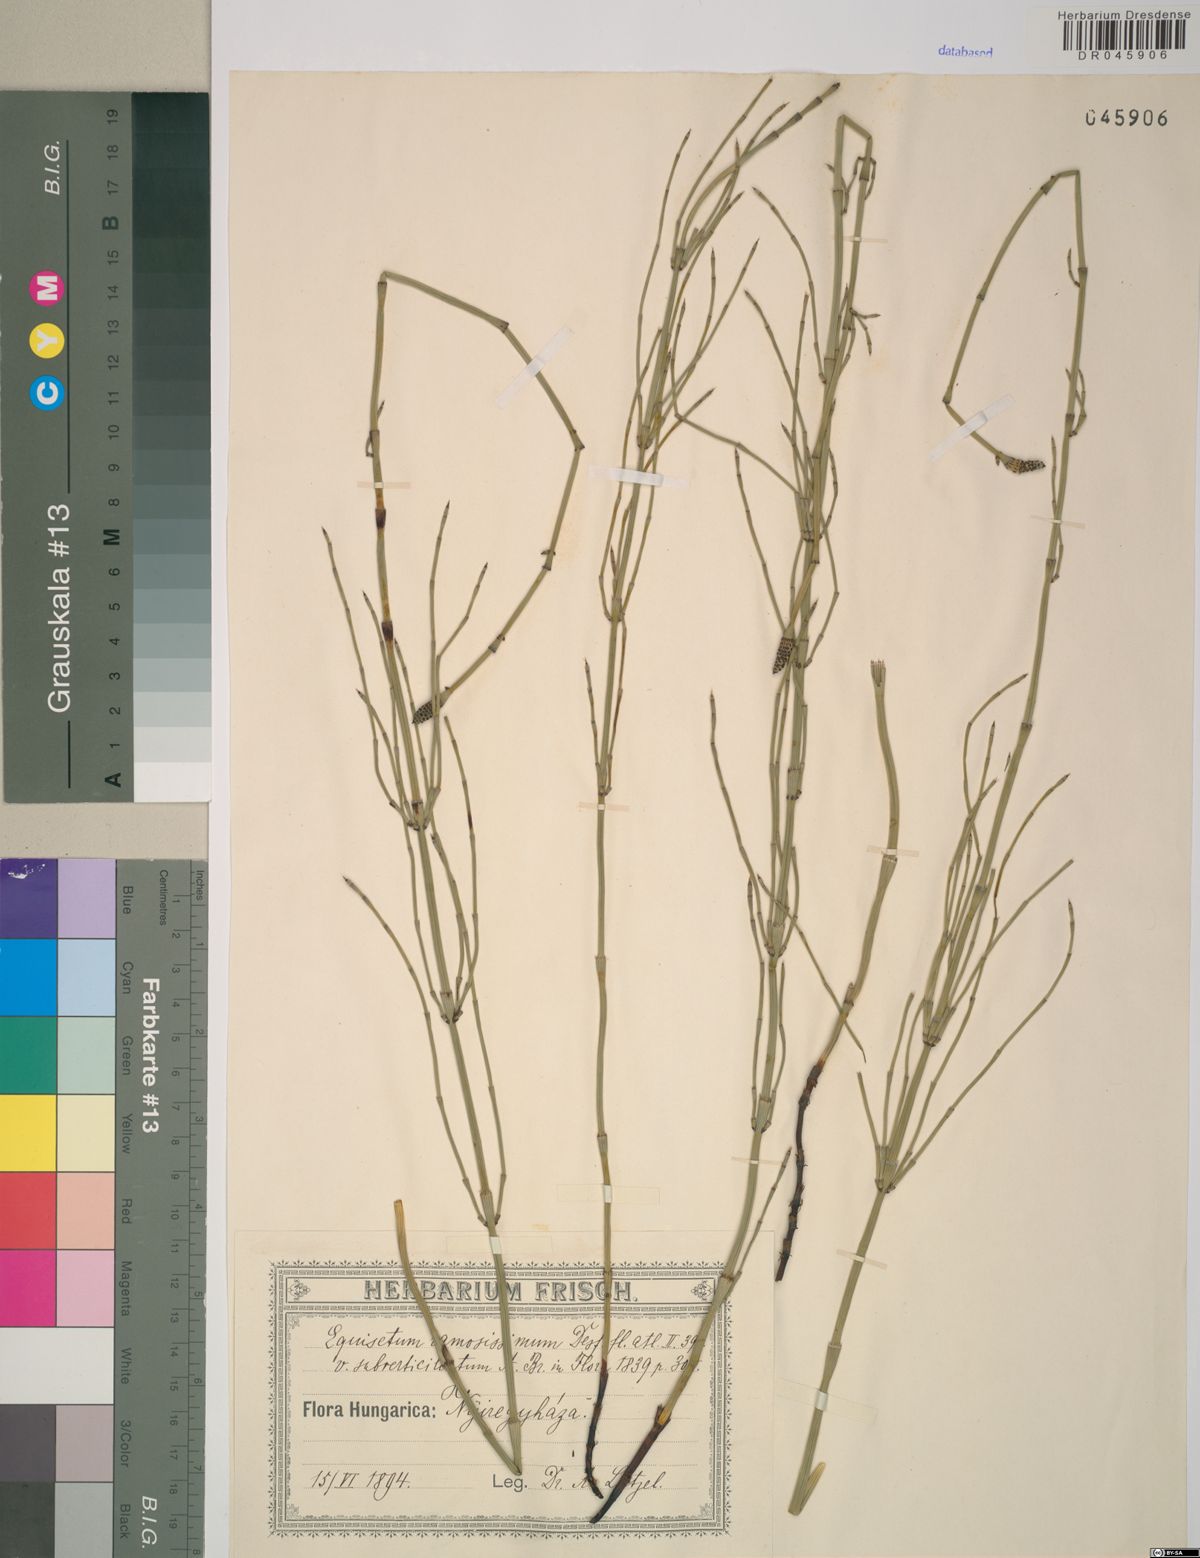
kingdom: Plantae
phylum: Tracheophyta
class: Polypodiopsida
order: Equisetales
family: Equisetaceae
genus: Equisetum
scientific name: Equisetum ramosissimum
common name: Branched horsetail
